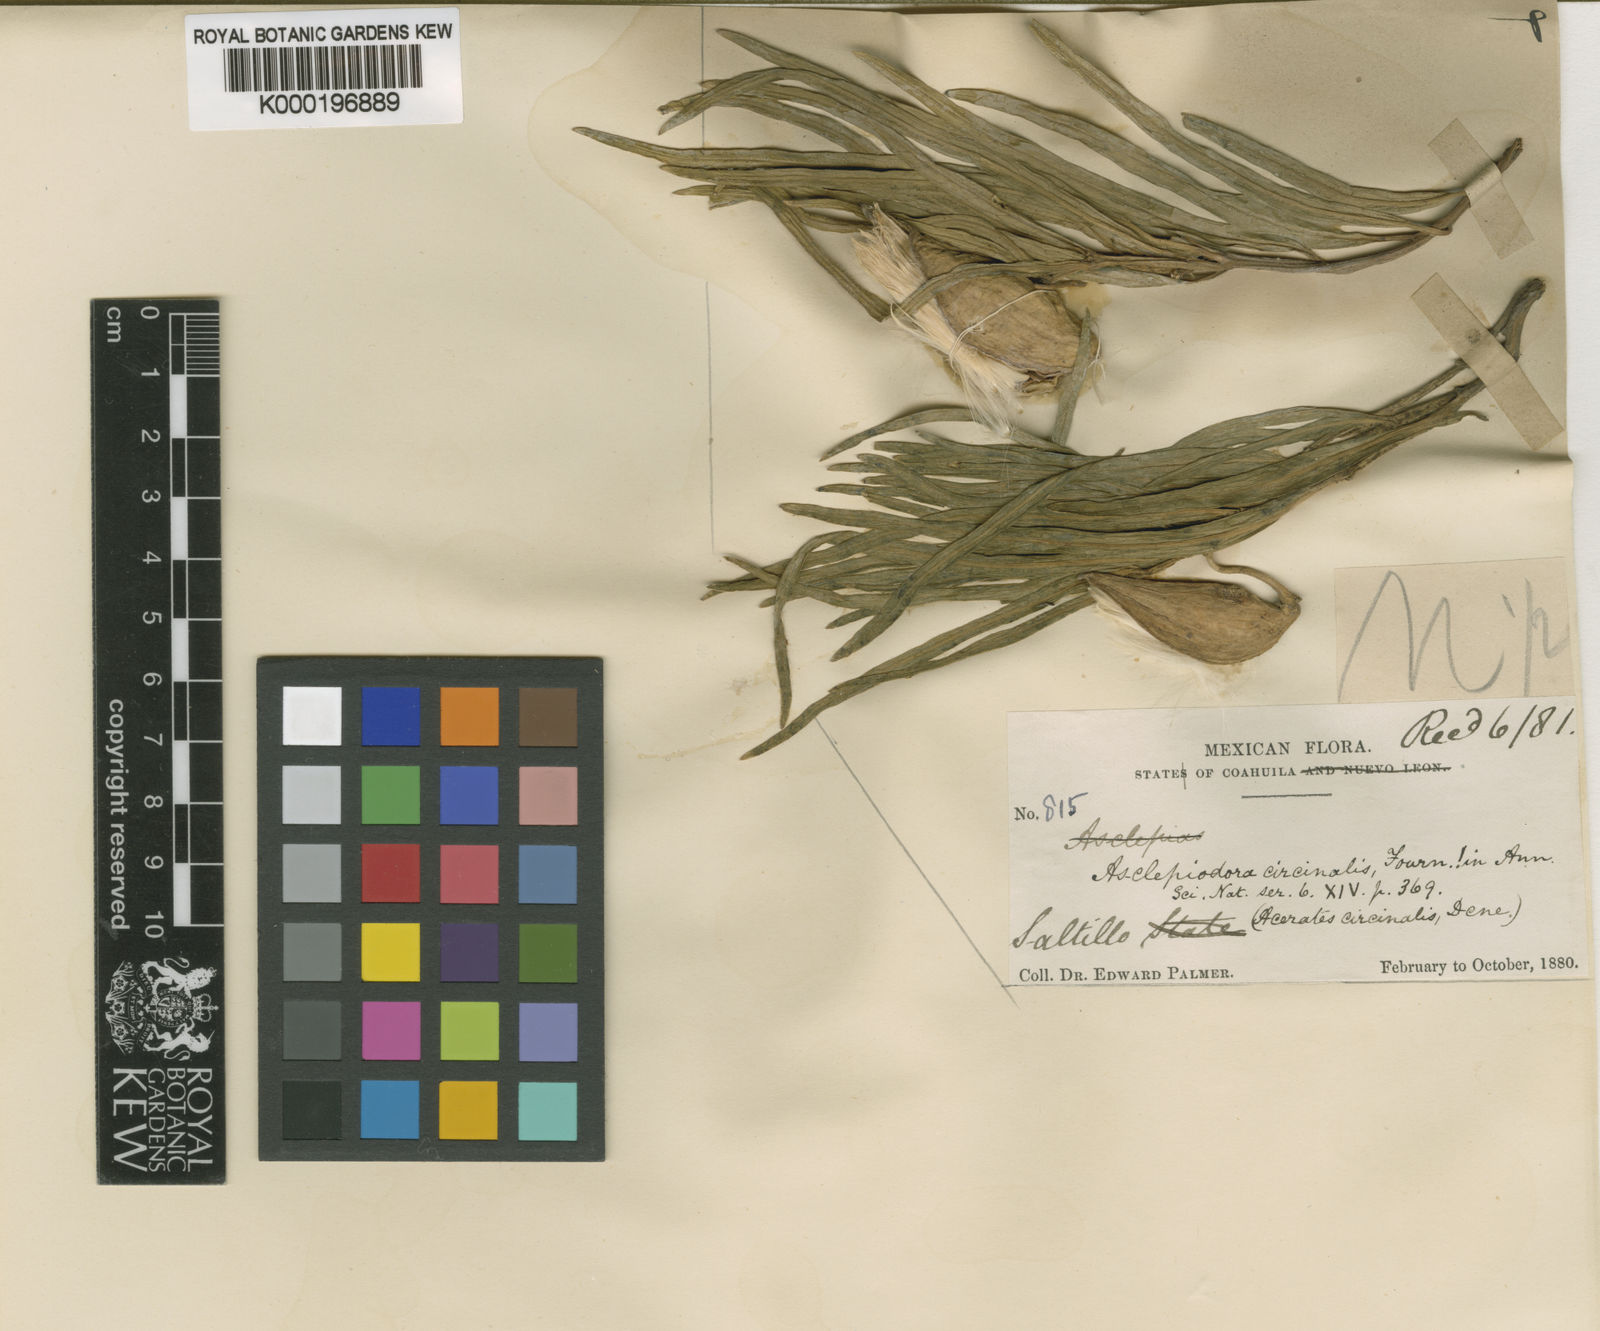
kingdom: Plantae
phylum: Tracheophyta
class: Magnoliopsida
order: Gentianales
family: Apocynaceae
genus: Asclepias
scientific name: Asclepias circinalis
